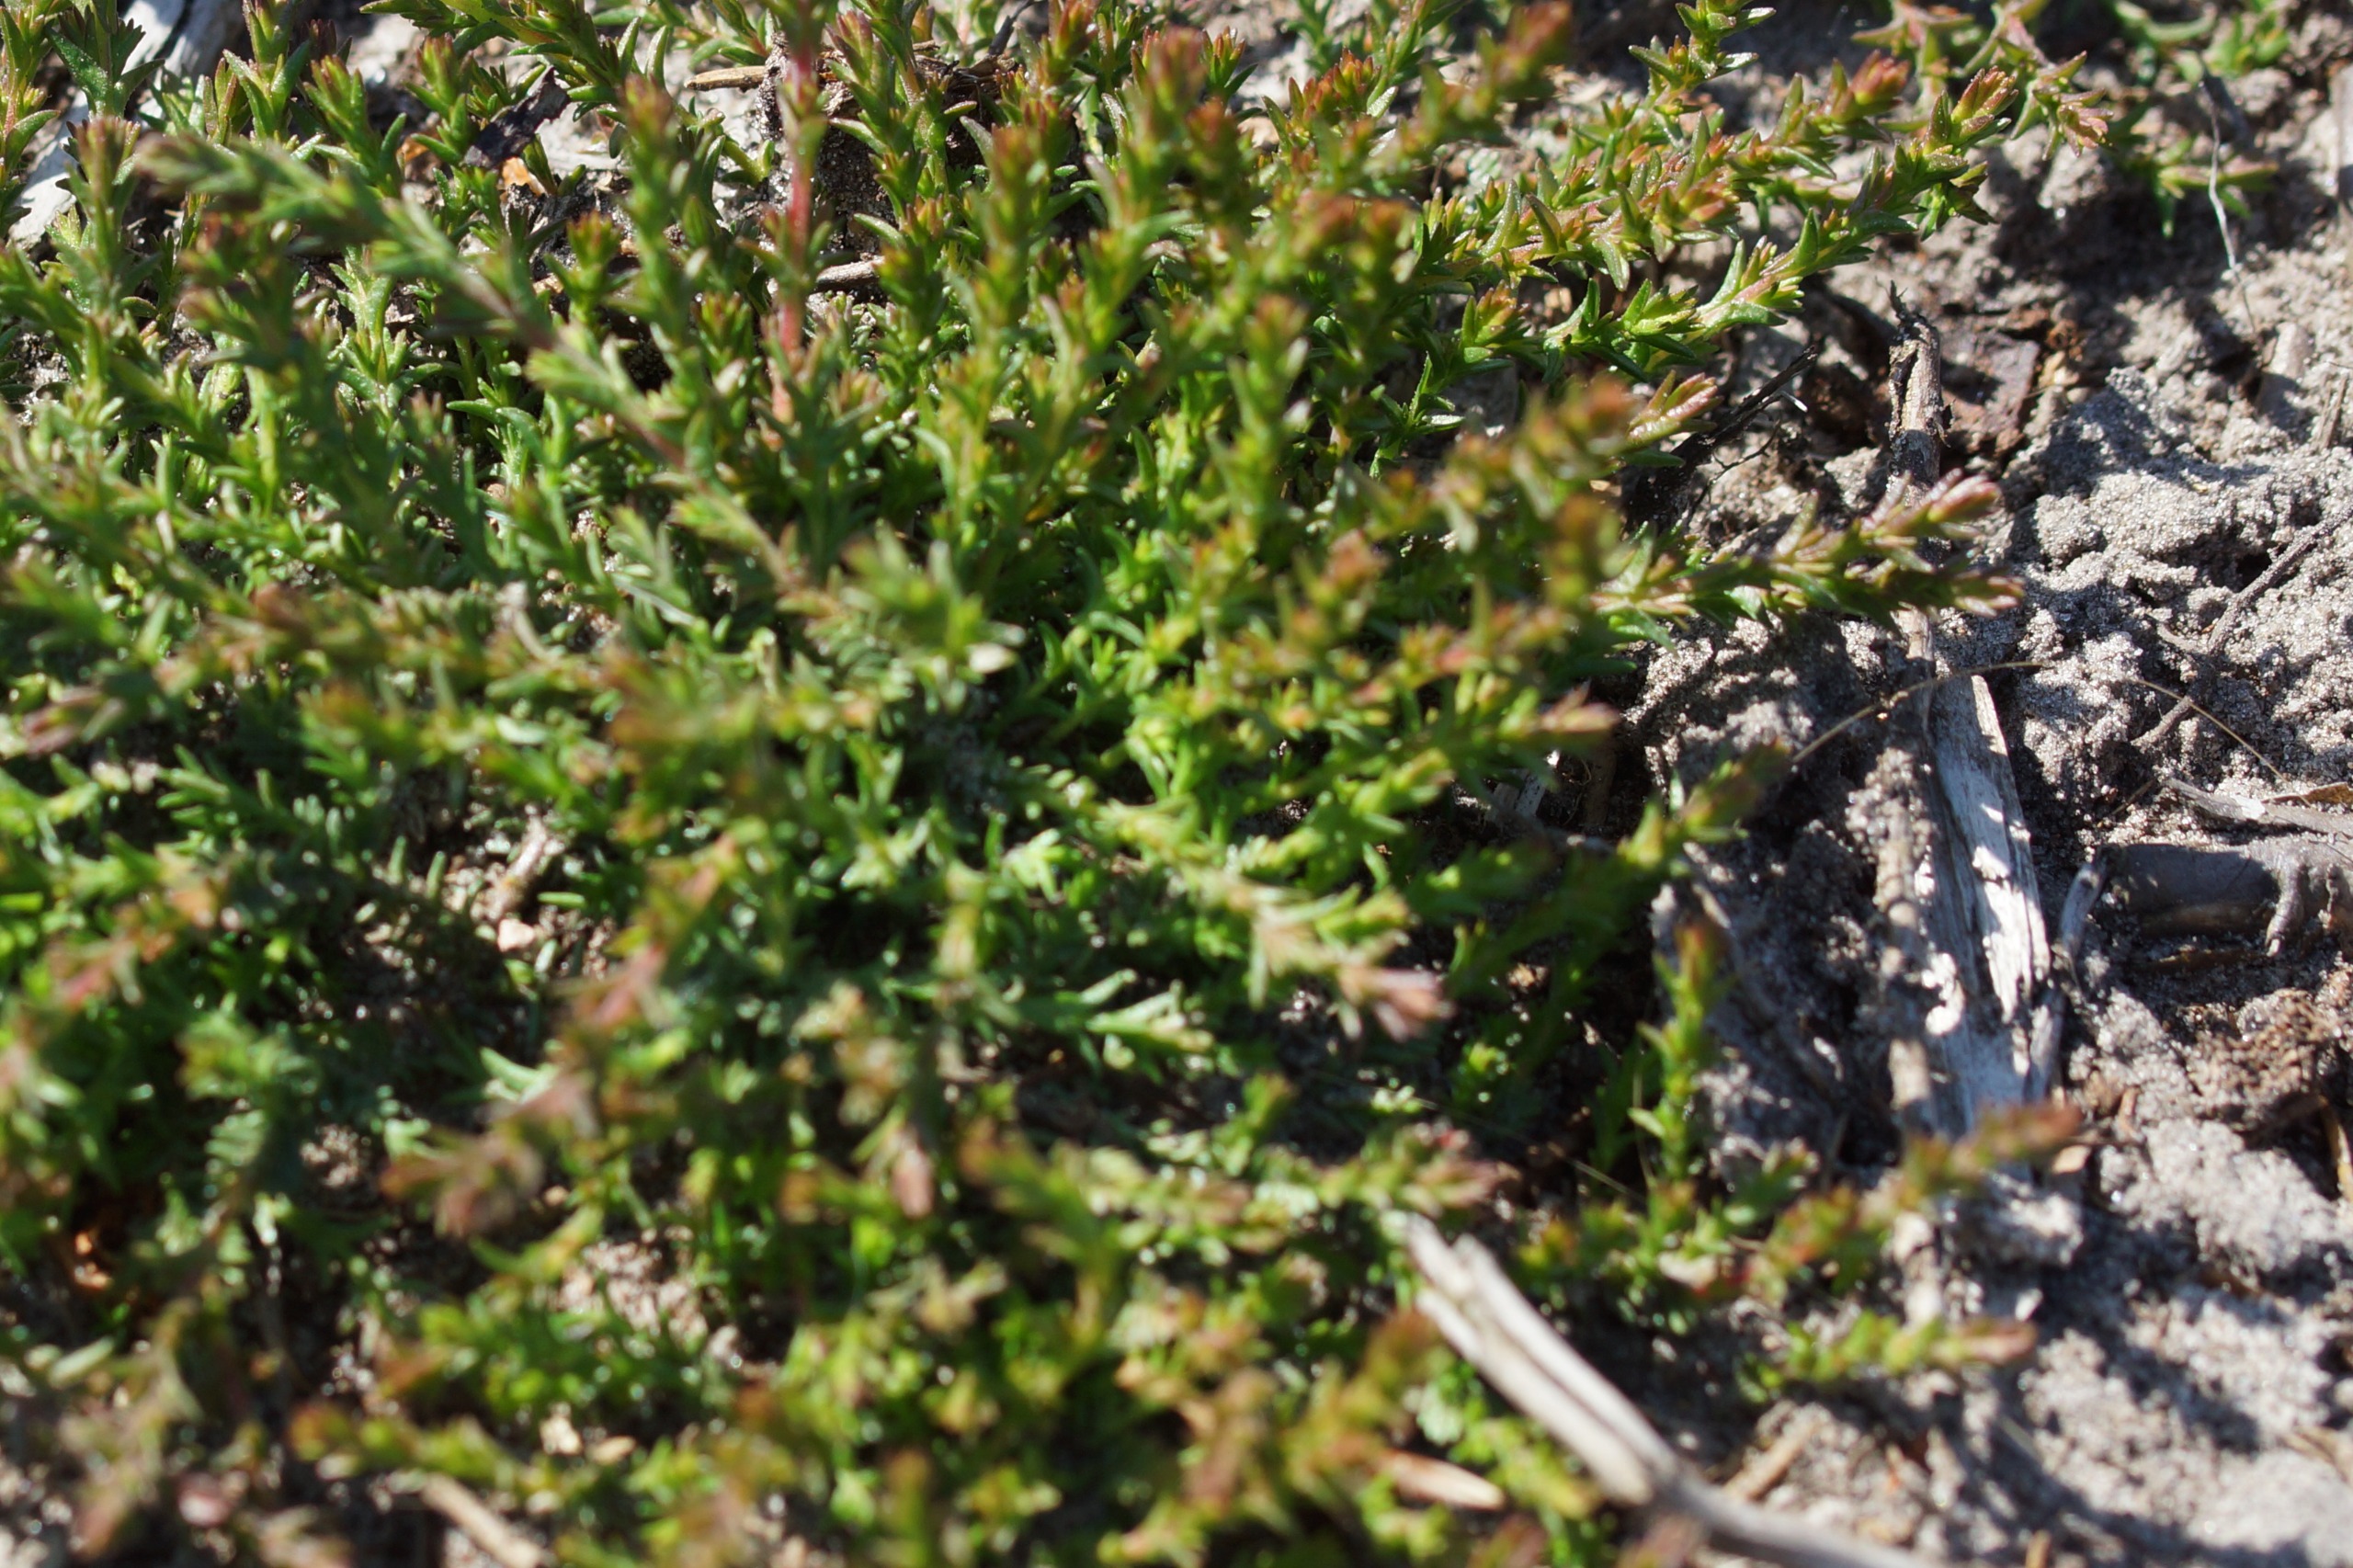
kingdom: Plantae
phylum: Tracheophyta
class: Magnoliopsida
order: Ericales
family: Ericaceae
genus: Calluna
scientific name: Calluna vulgaris
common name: Hedelyng
